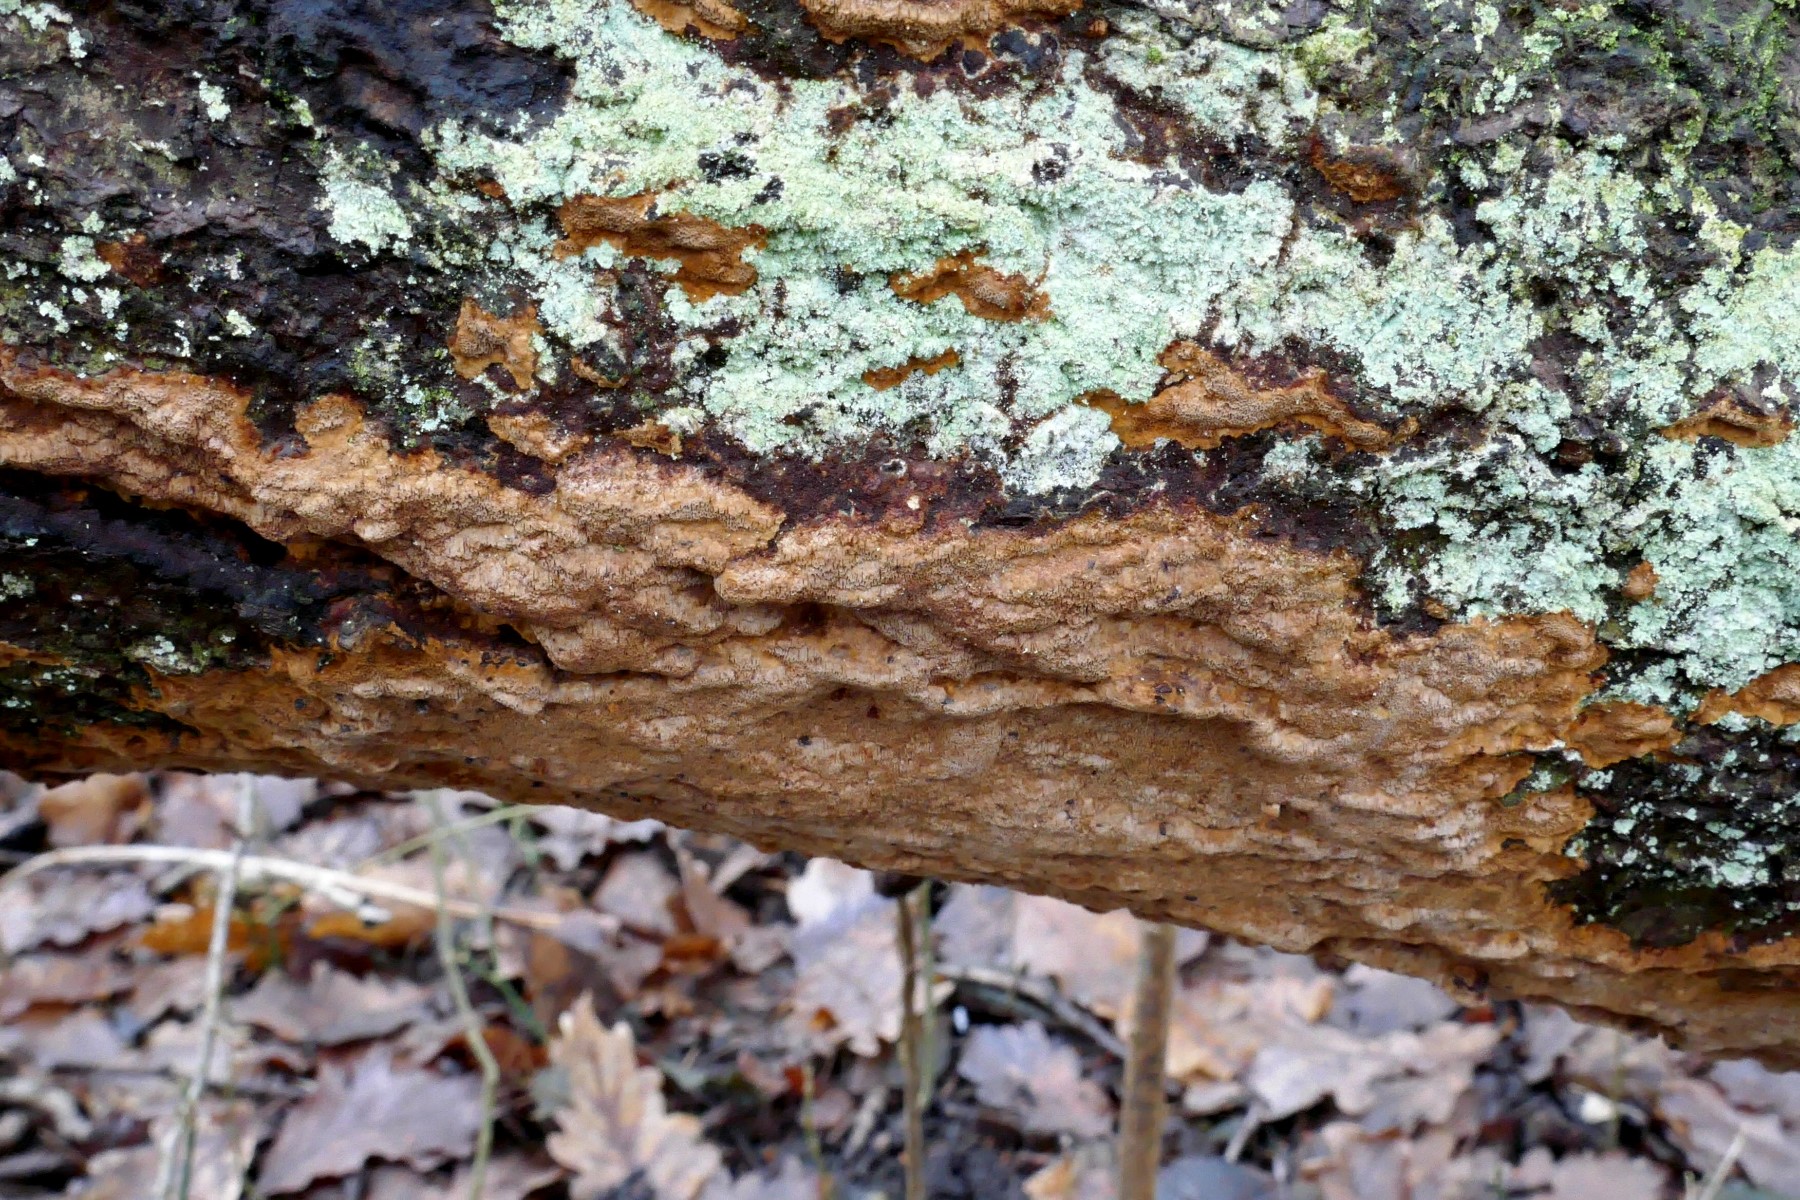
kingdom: Fungi
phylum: Basidiomycota
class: Agaricomycetes
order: Hymenochaetales
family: Hymenochaetaceae
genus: Fuscoporia
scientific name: Fuscoporia ferrea
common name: skorpe-ildporesvamp
